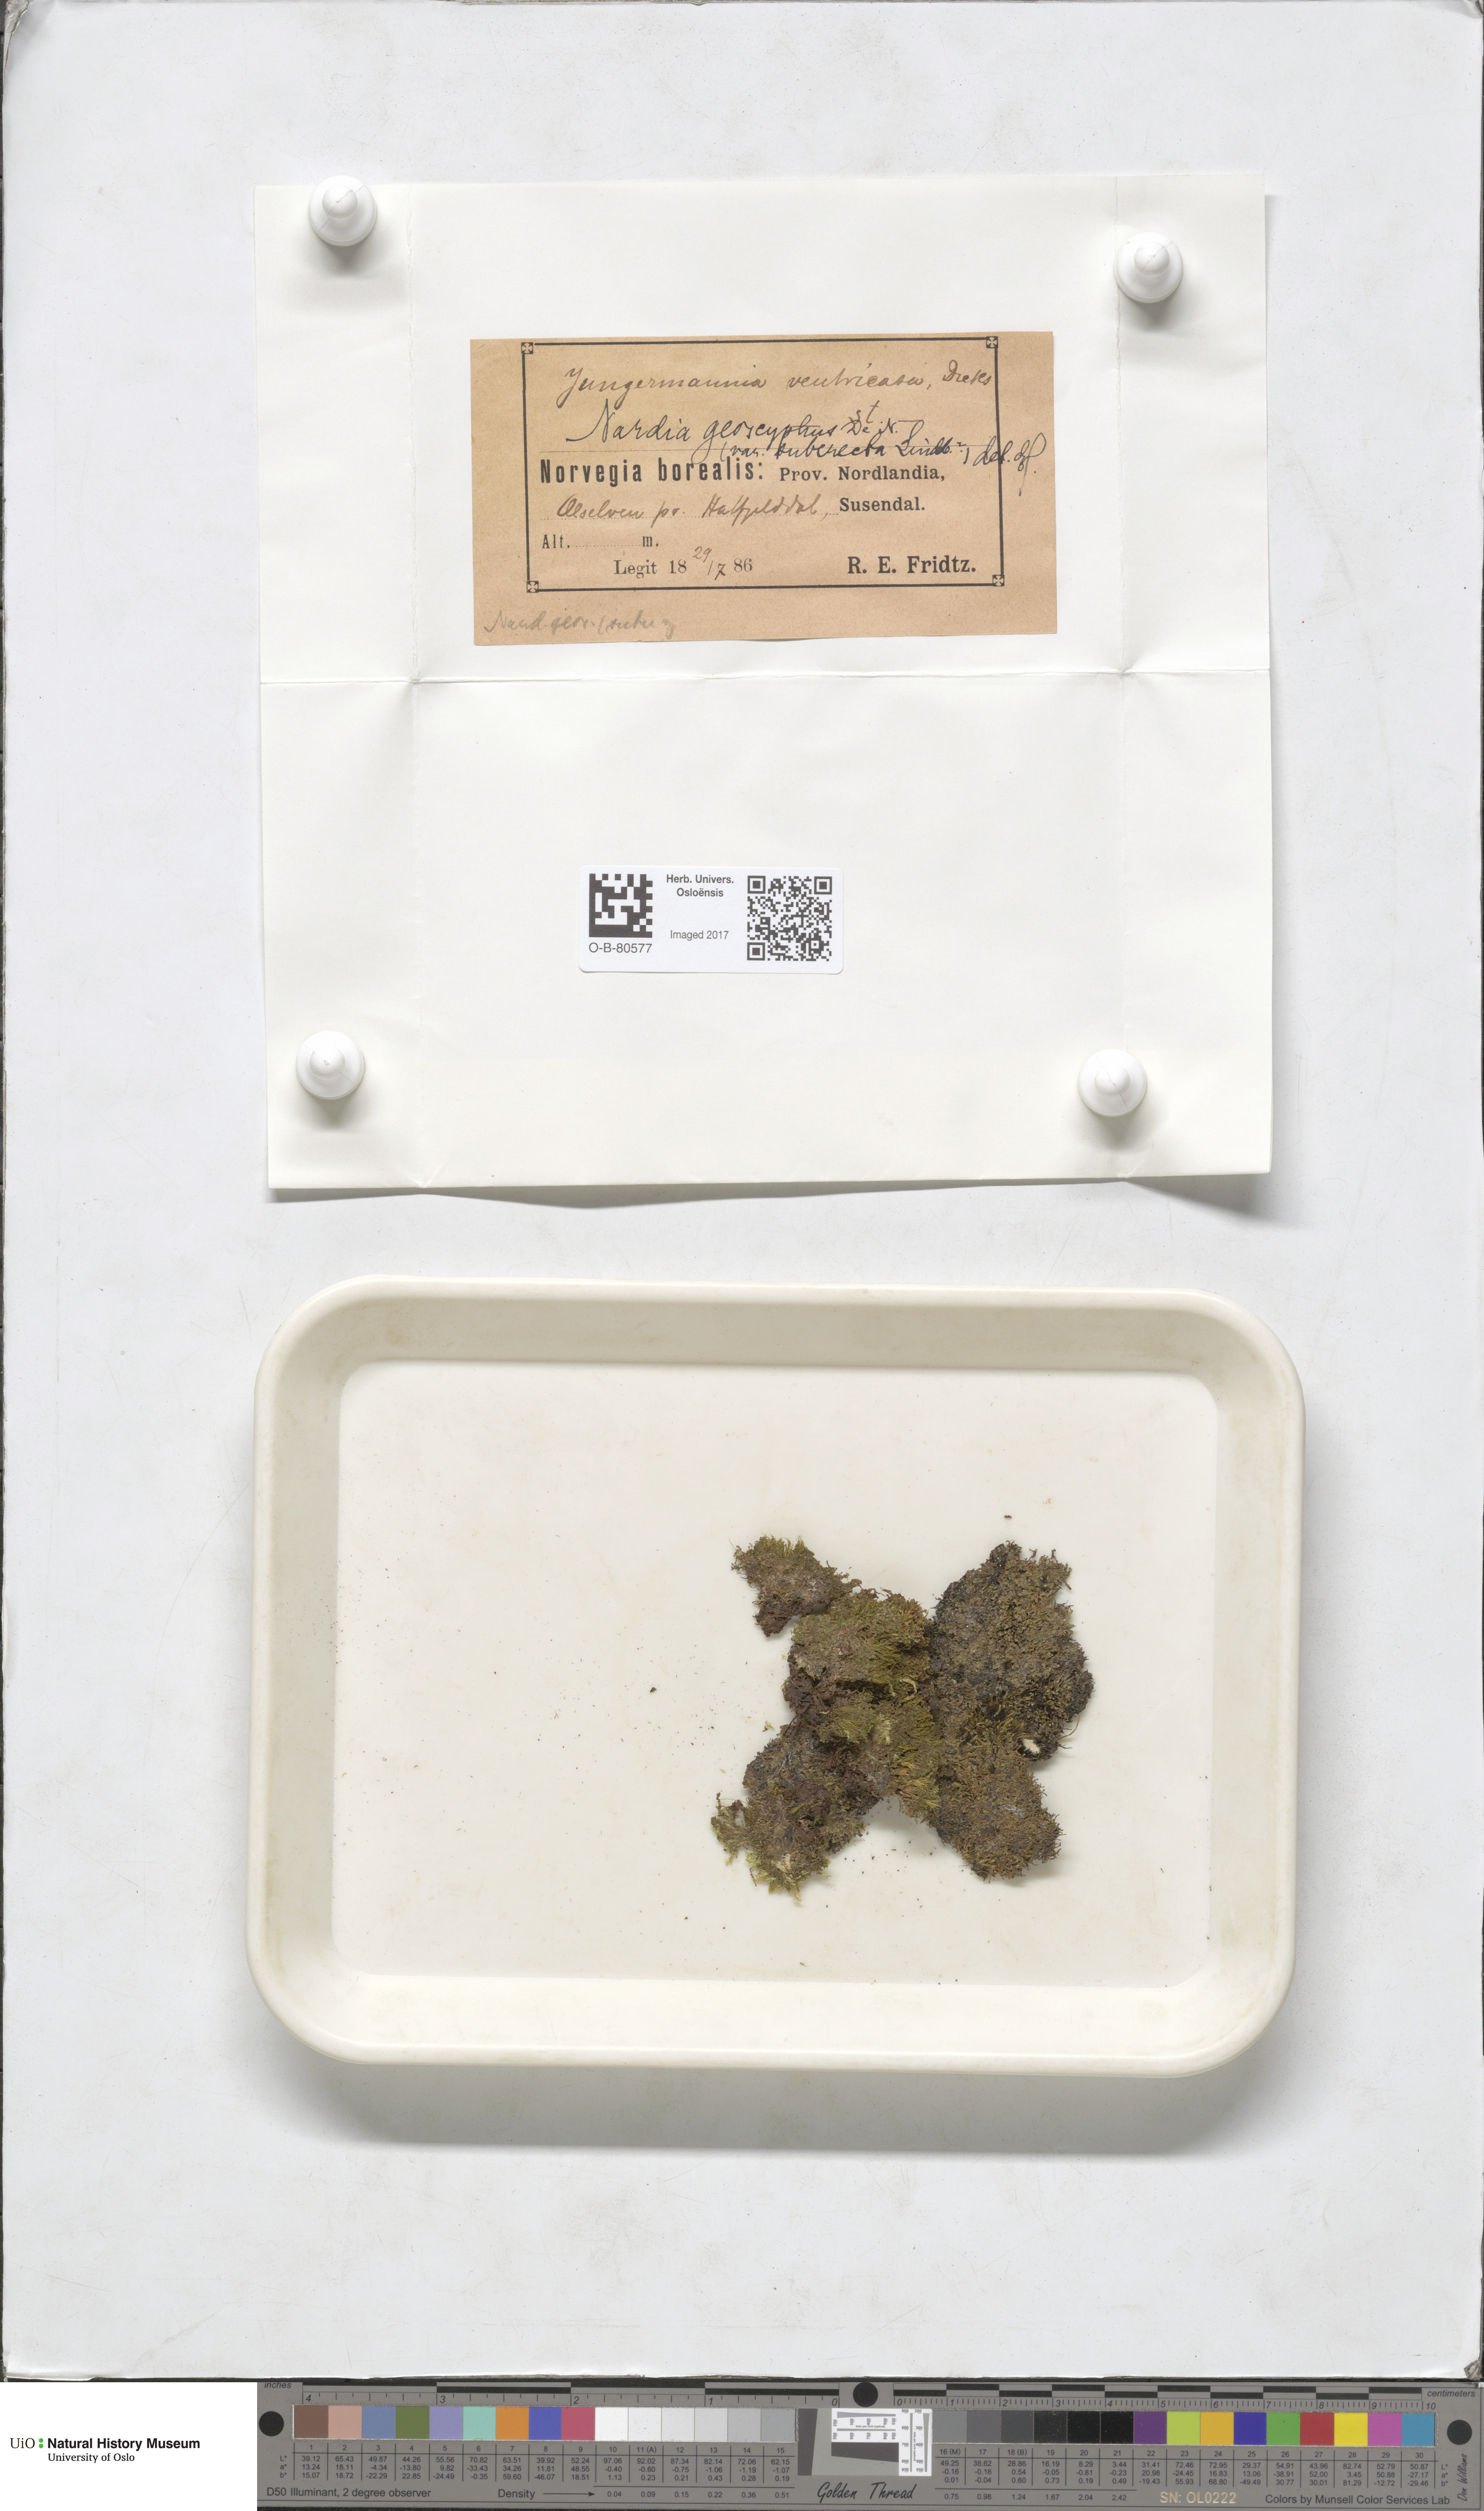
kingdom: Plantae
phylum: Marchantiophyta
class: Jungermanniopsida
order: Jungermanniales
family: Gymnomitriaceae
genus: Nardia
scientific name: Nardia geoscyphus
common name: Earth-cup flapwort
